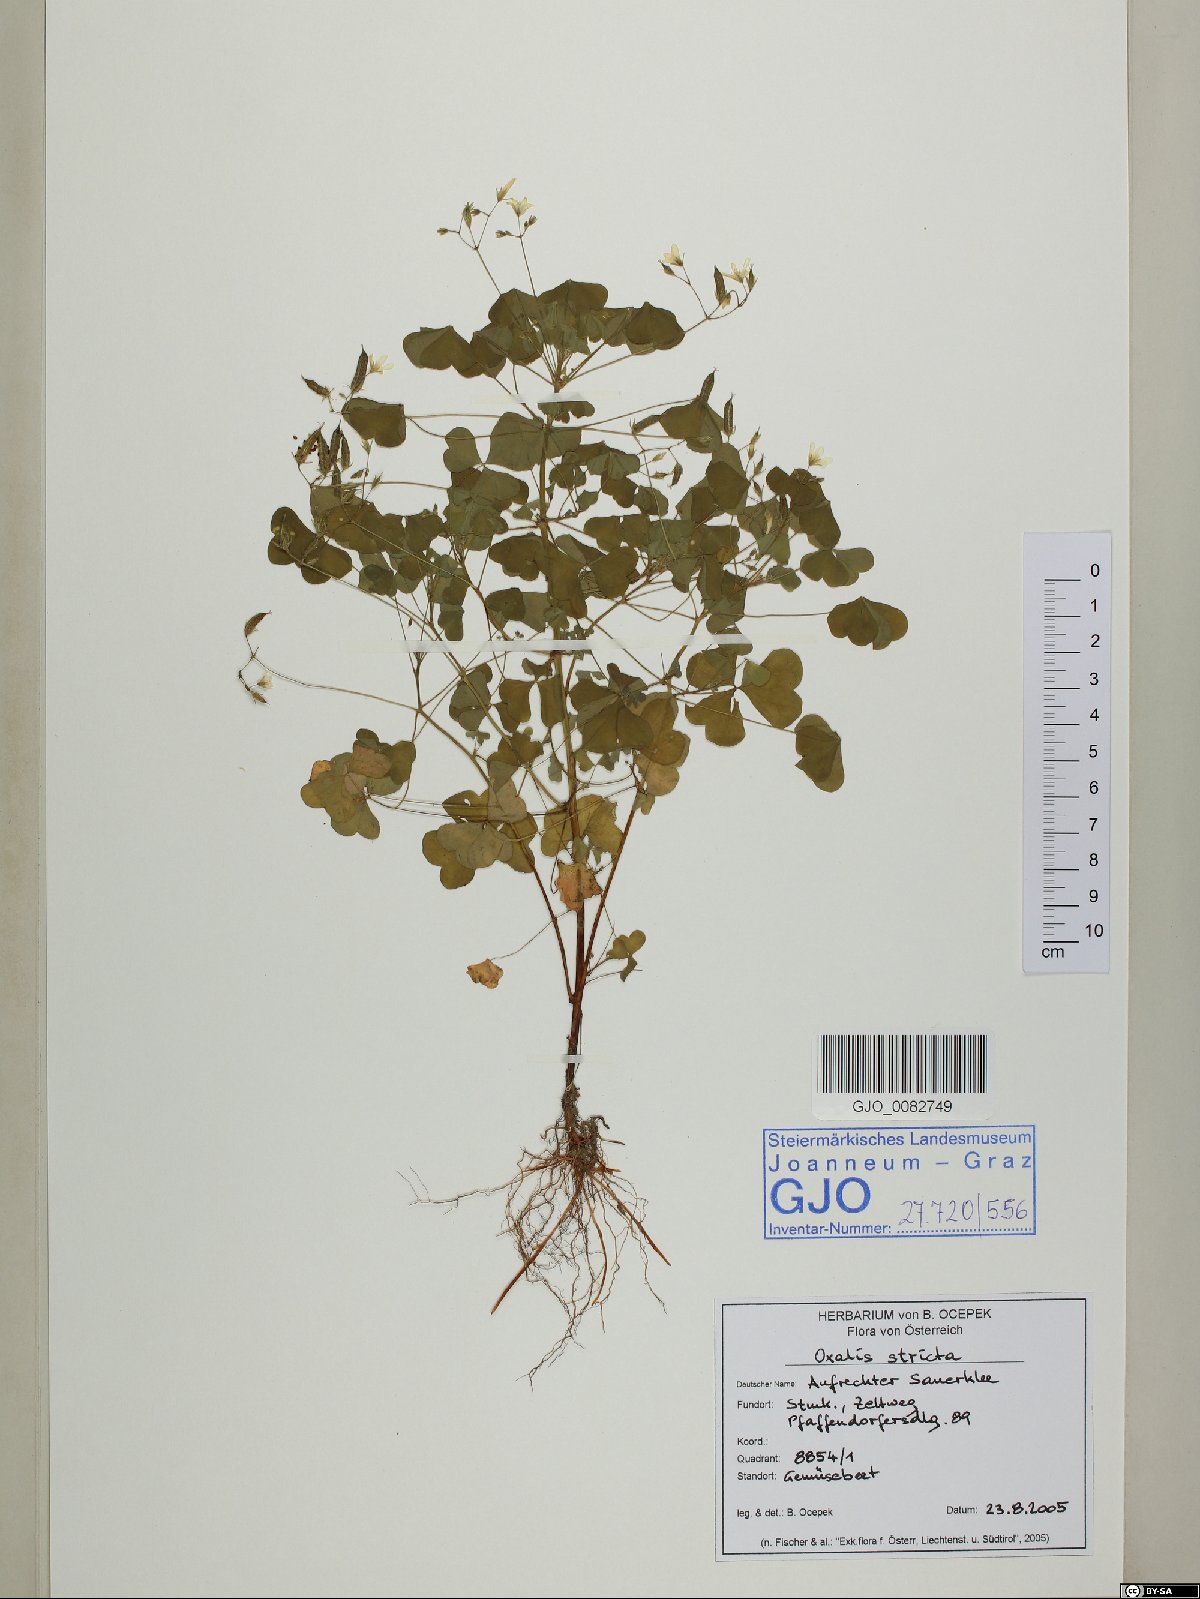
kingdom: Plantae
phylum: Tracheophyta
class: Magnoliopsida
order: Oxalidales
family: Oxalidaceae
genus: Oxalis
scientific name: Oxalis stricta
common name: Upright yellow-sorrel
